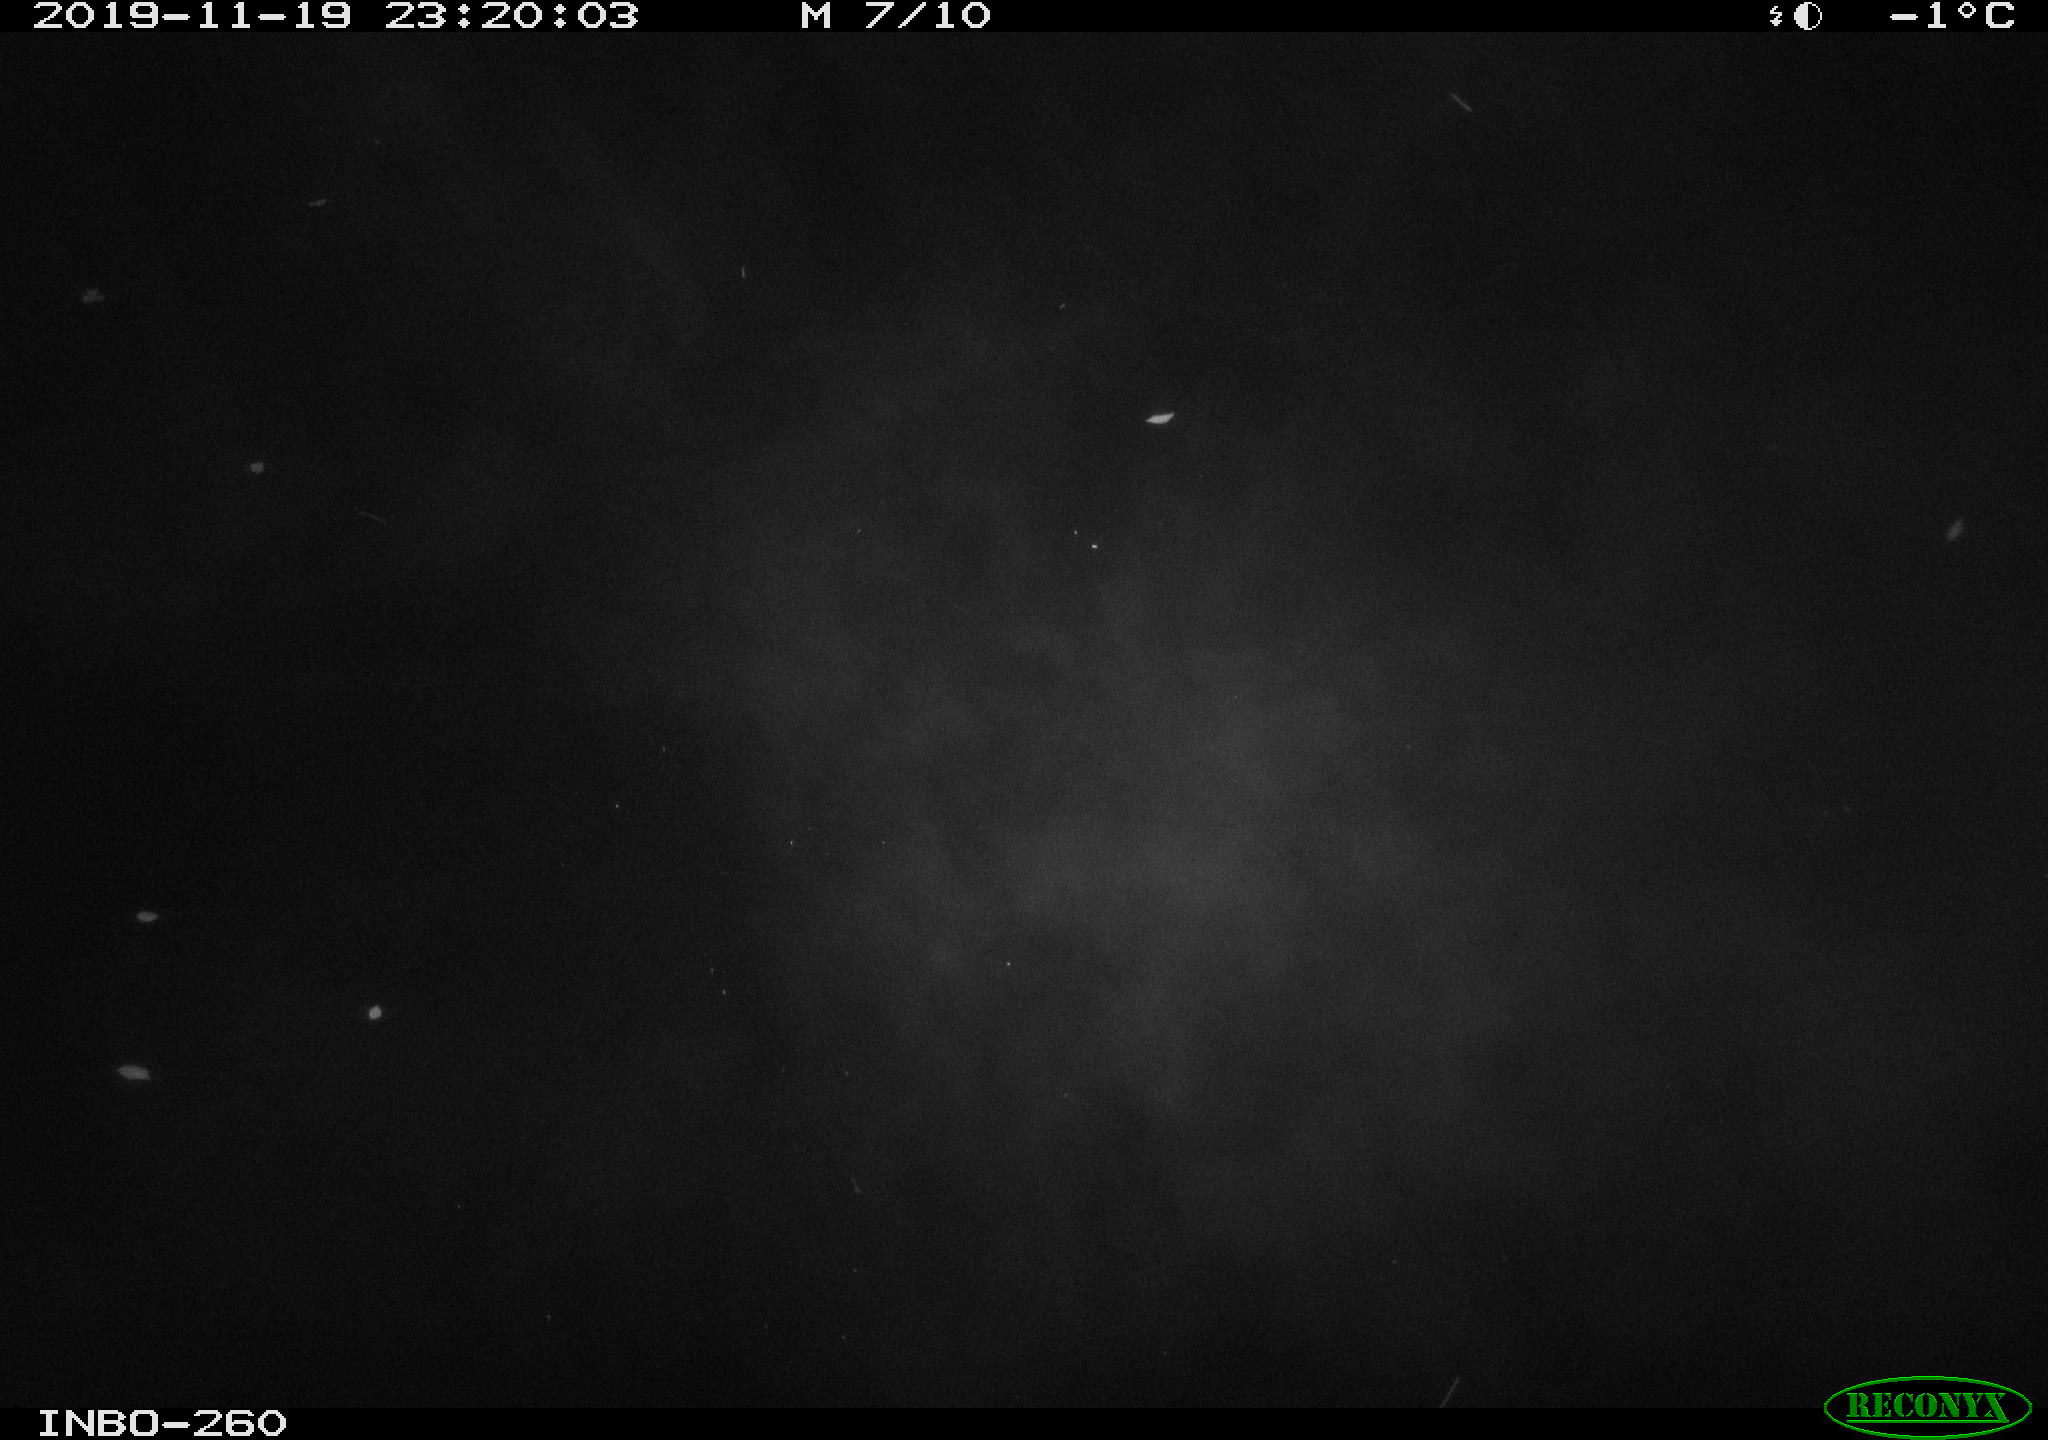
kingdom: Animalia
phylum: Chordata
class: Aves
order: Anseriformes
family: Anatidae
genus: Anas
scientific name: Anas platyrhynchos
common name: Mallard
